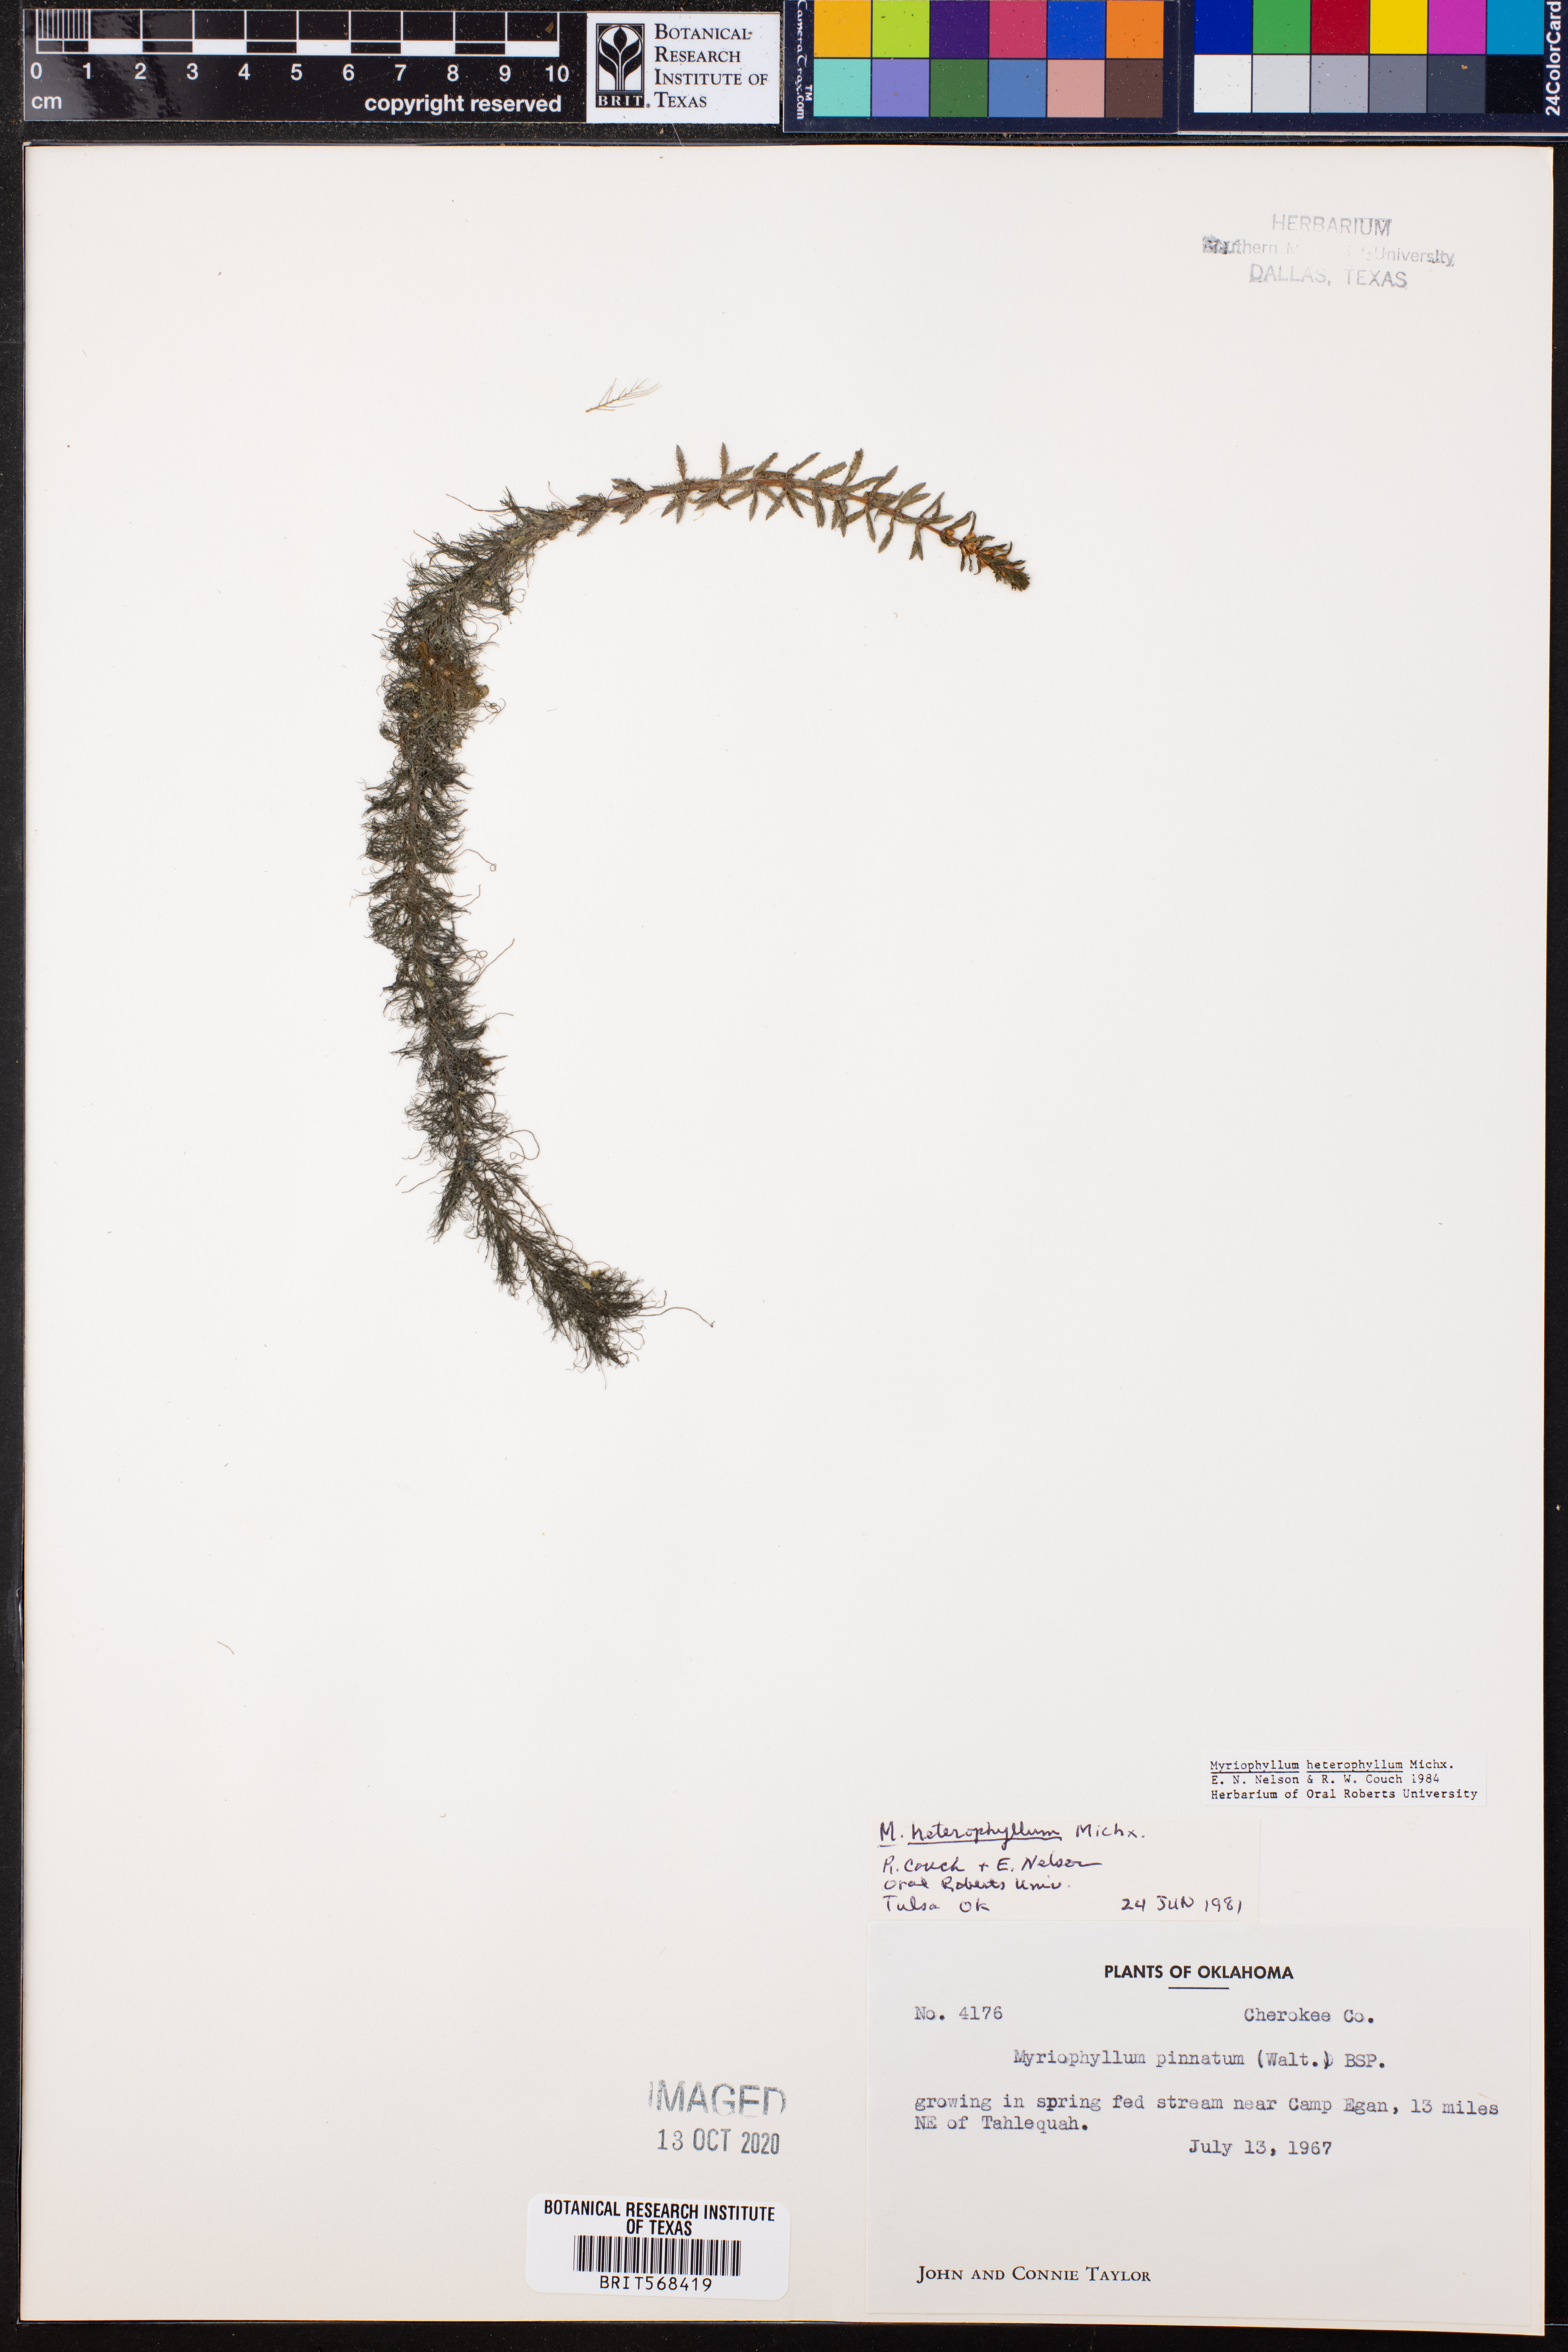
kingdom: Plantae
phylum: Tracheophyta
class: Magnoliopsida
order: Saxifragales
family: Haloragaceae
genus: Myriophyllum
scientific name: Myriophyllum heterophyllum
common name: Variable watermilfoil
